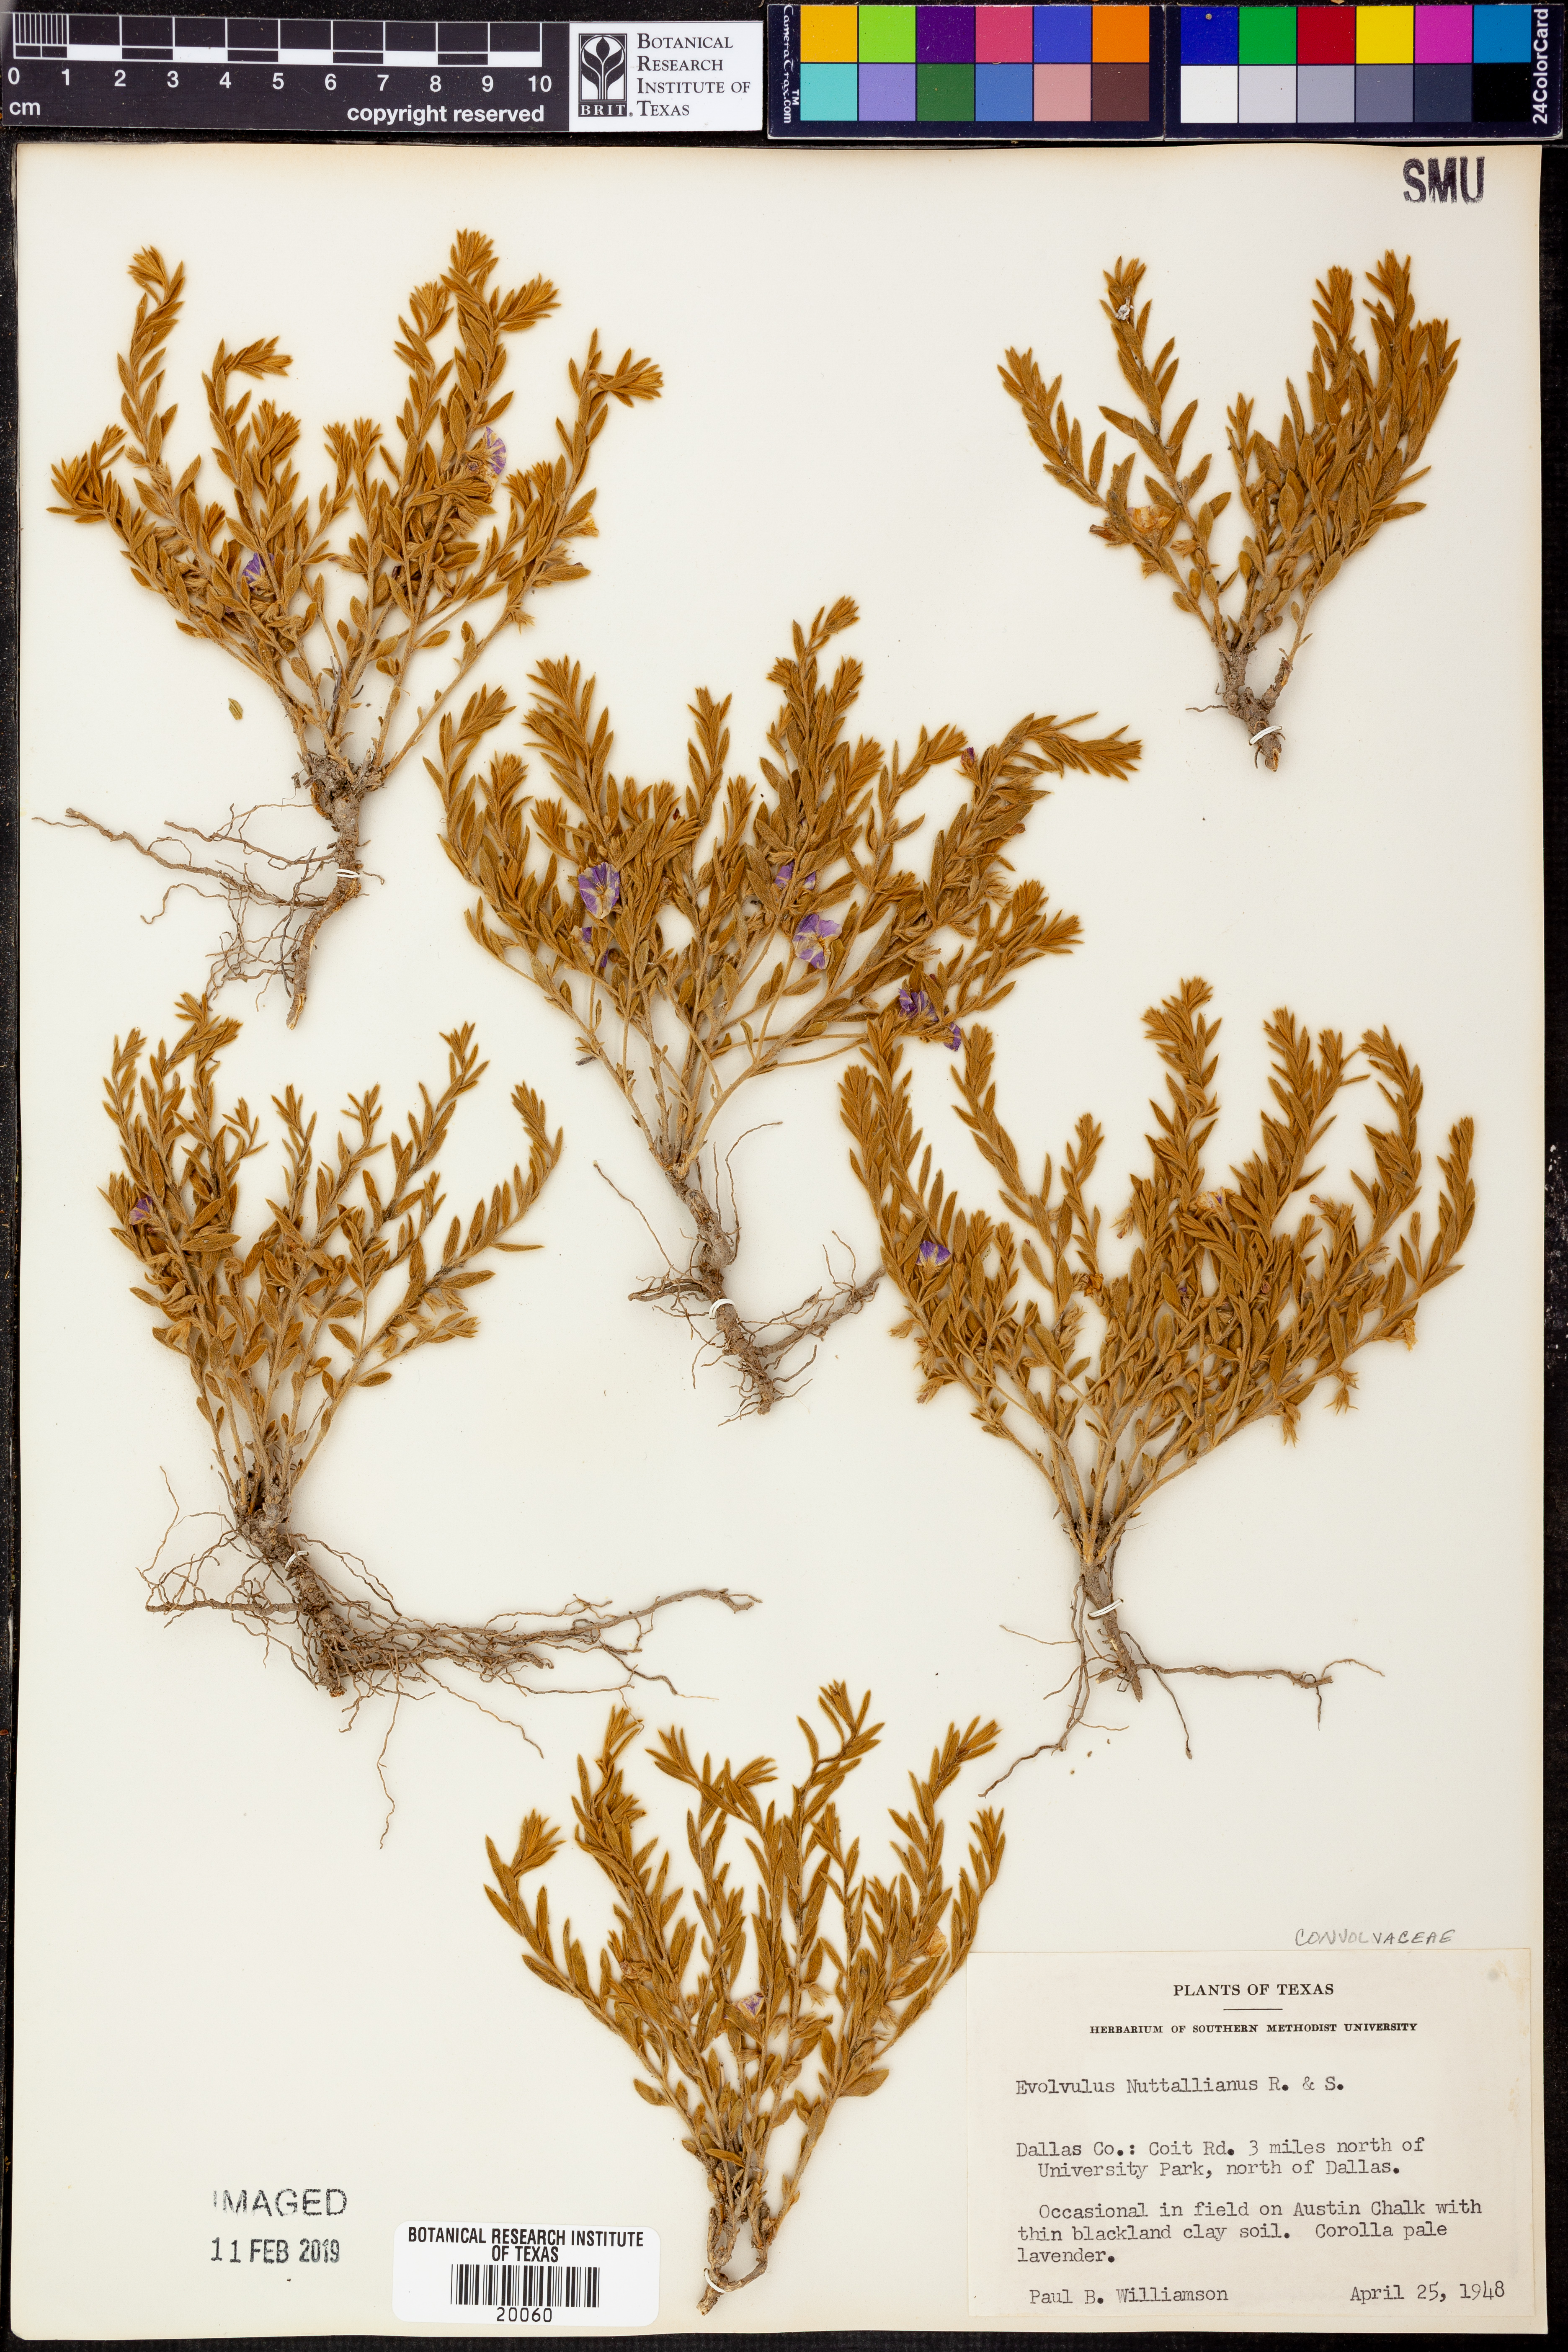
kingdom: Plantae
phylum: Tracheophyta
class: Magnoliopsida
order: Solanales
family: Convolvulaceae
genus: Evolvulus
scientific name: Evolvulus nuttallianus
